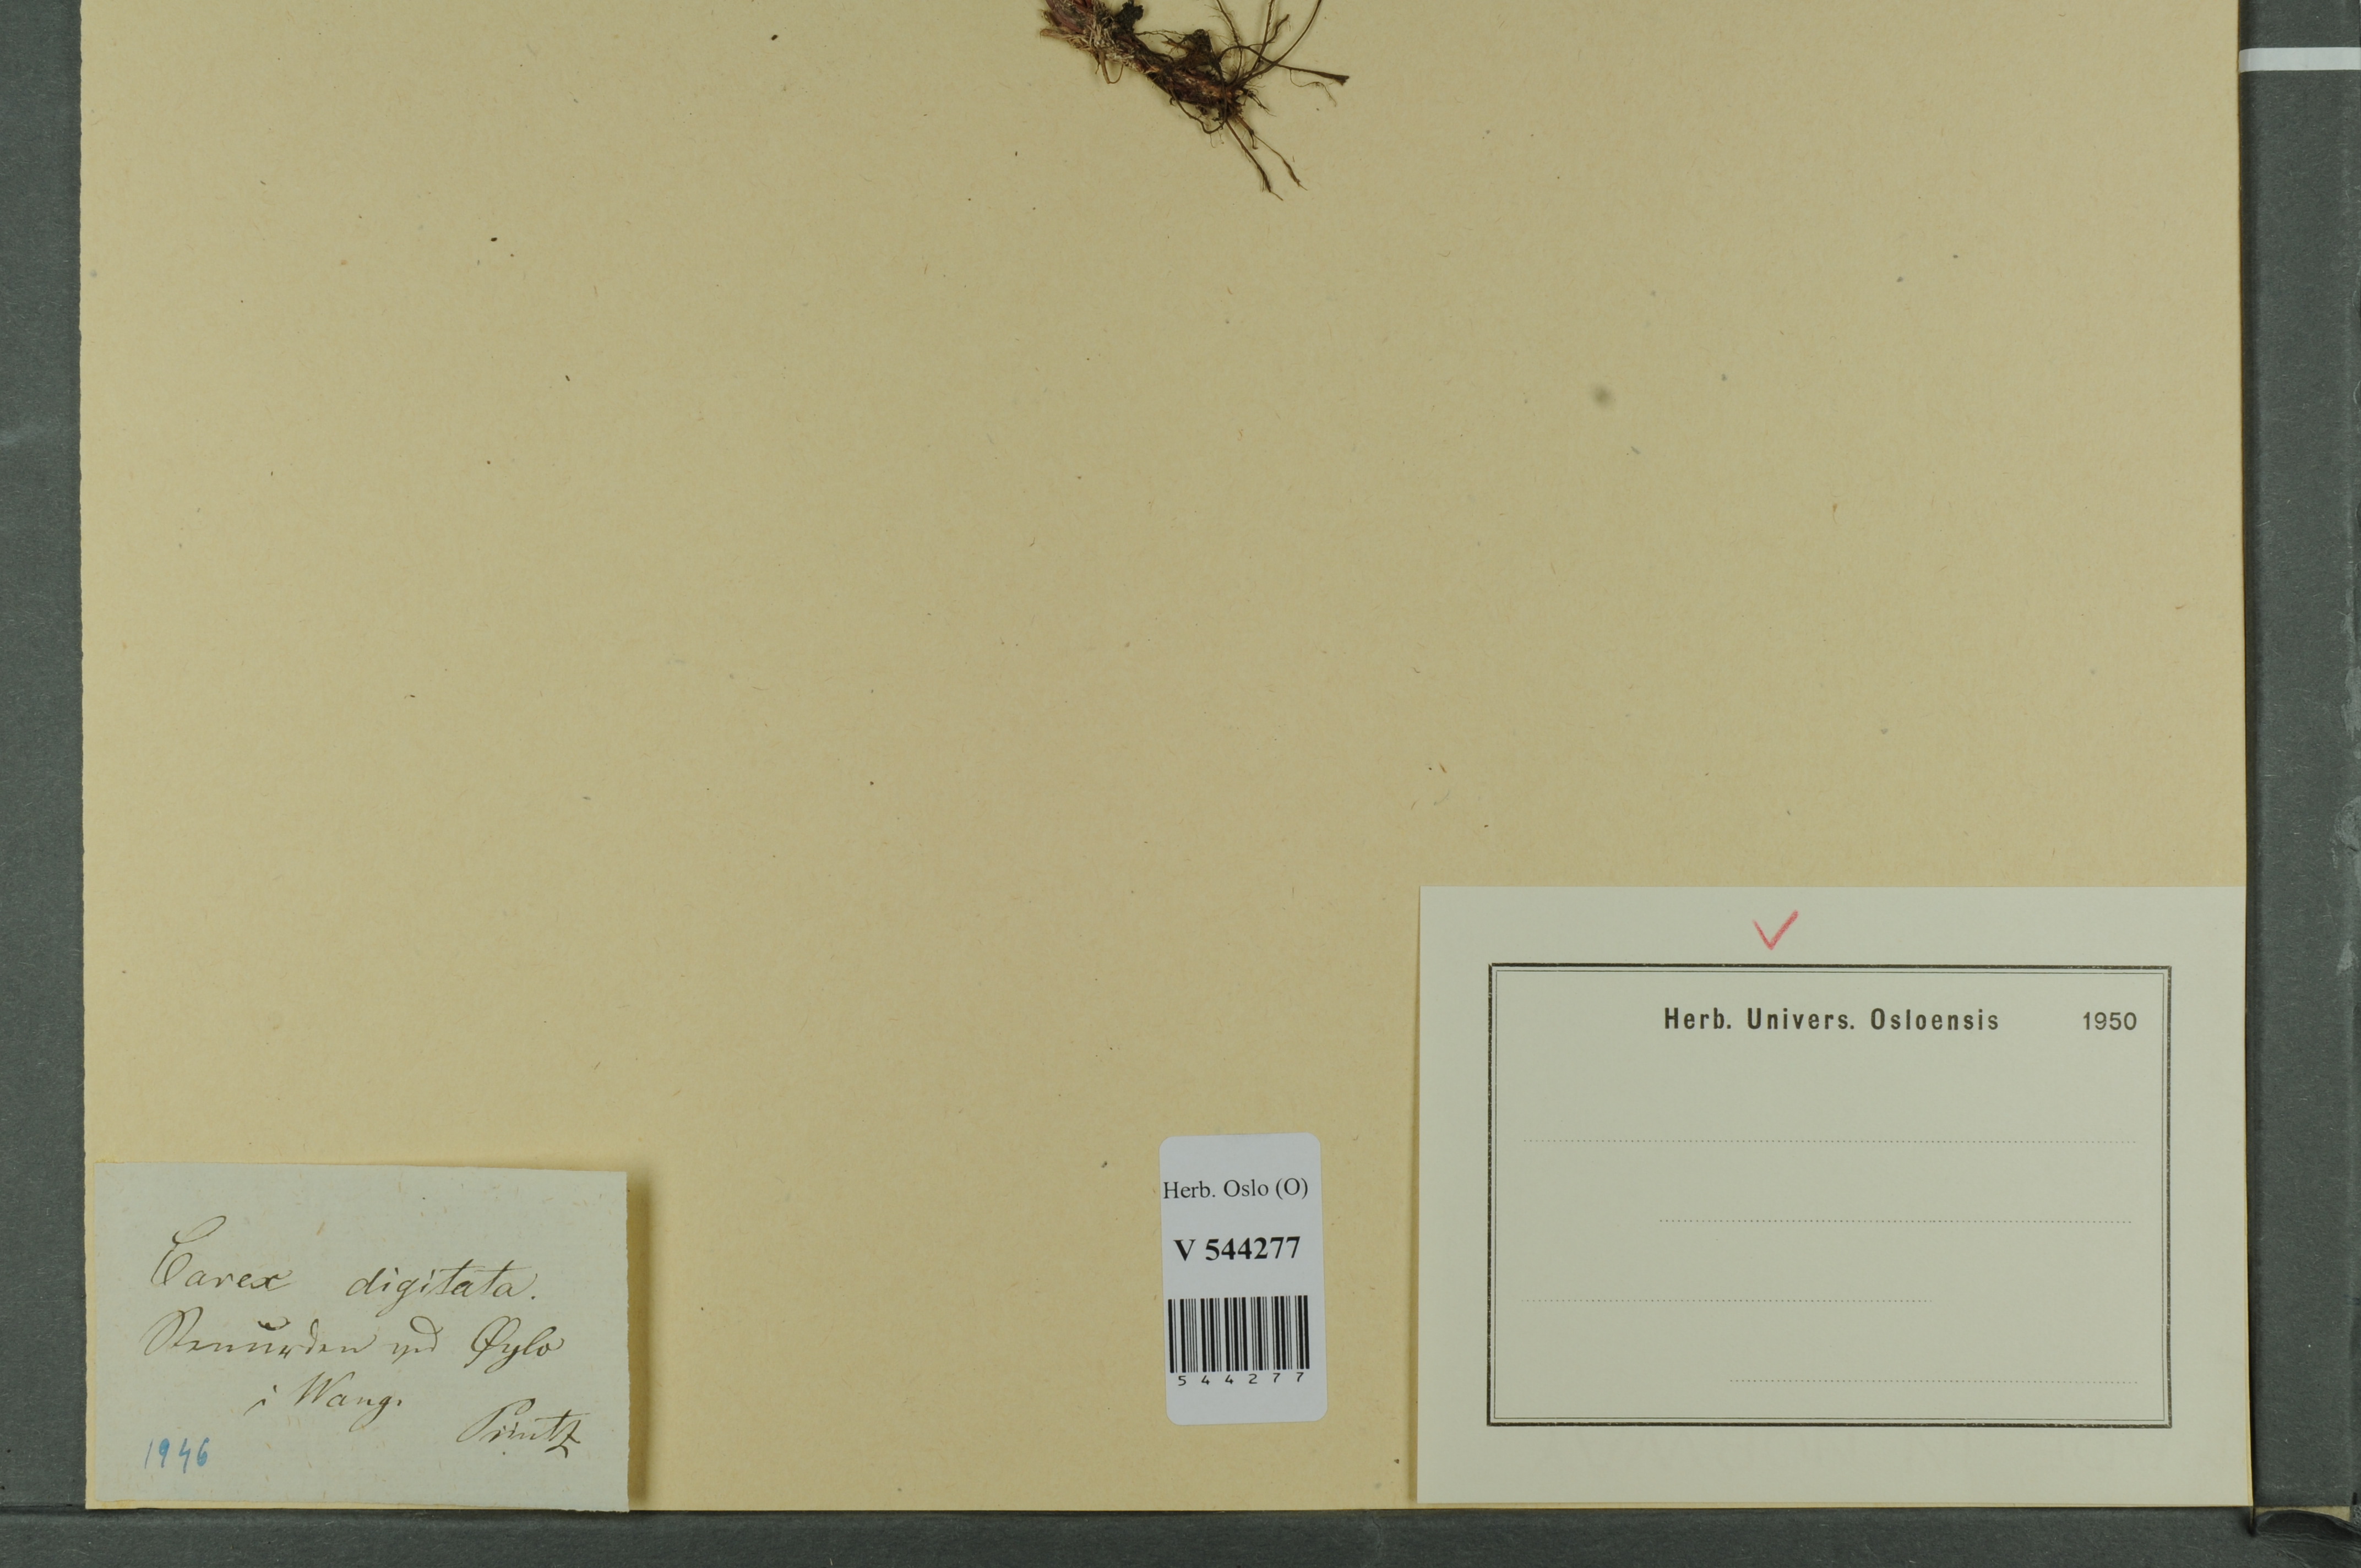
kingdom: Plantae
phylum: Tracheophyta
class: Liliopsida
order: Poales
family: Cyperaceae
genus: Carex
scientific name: Carex digitata
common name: Fingered sedge
